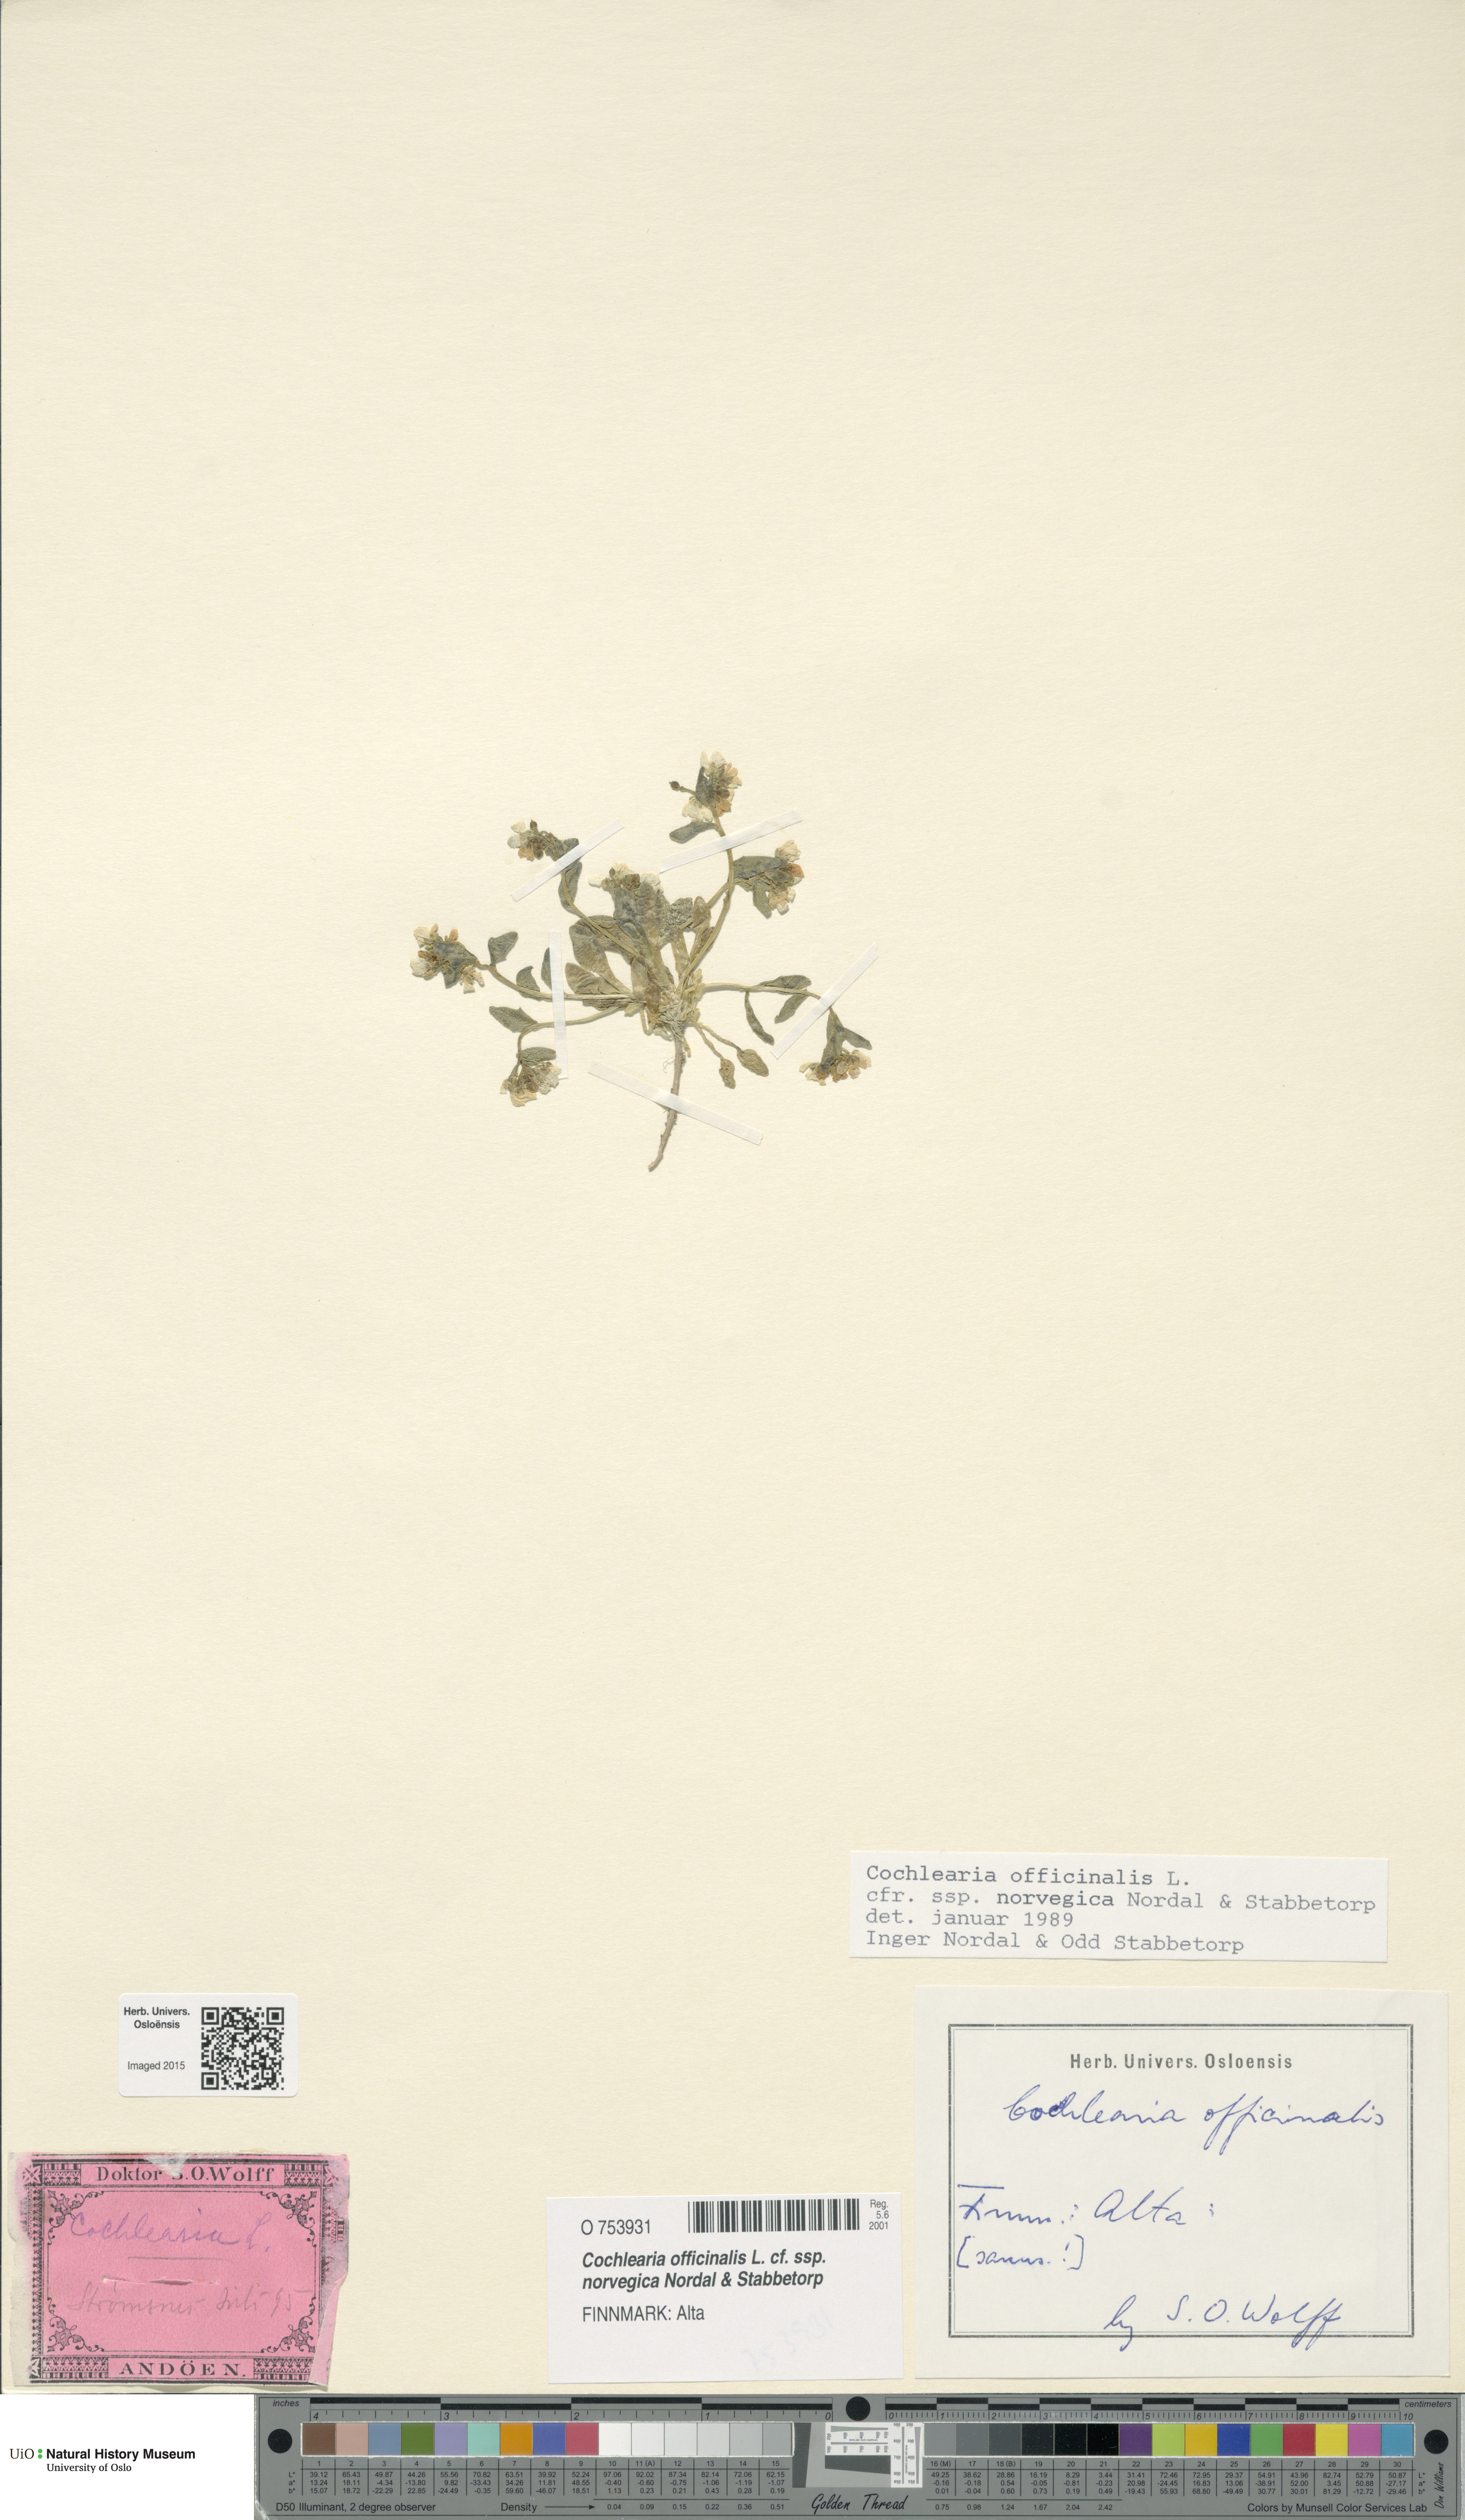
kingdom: Plantae
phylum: Tracheophyta
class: Magnoliopsida
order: Brassicales
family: Brassicaceae
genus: Cochlearia
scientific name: Cochlearia officinalis
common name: Scurvy-grass
